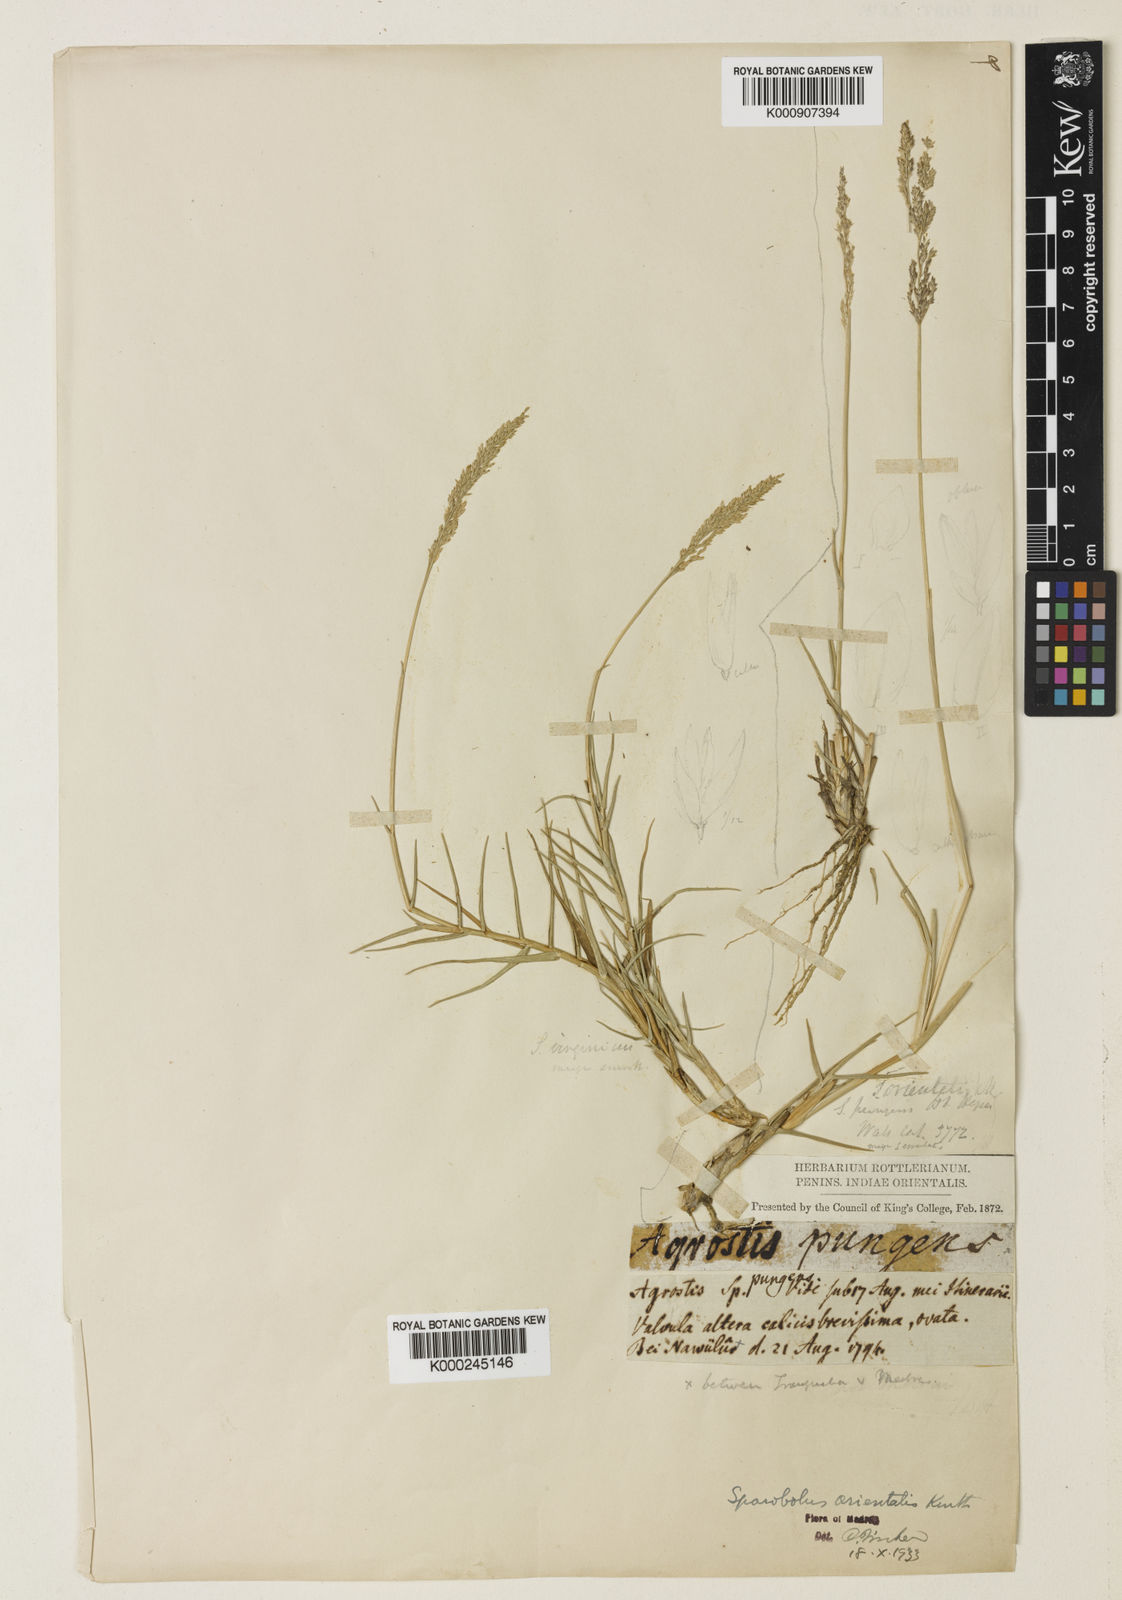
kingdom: Plantae
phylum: Tracheophyta
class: Liliopsida
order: Poales
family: Poaceae
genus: Sporobolus
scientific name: Sporobolus maderaspatanus
